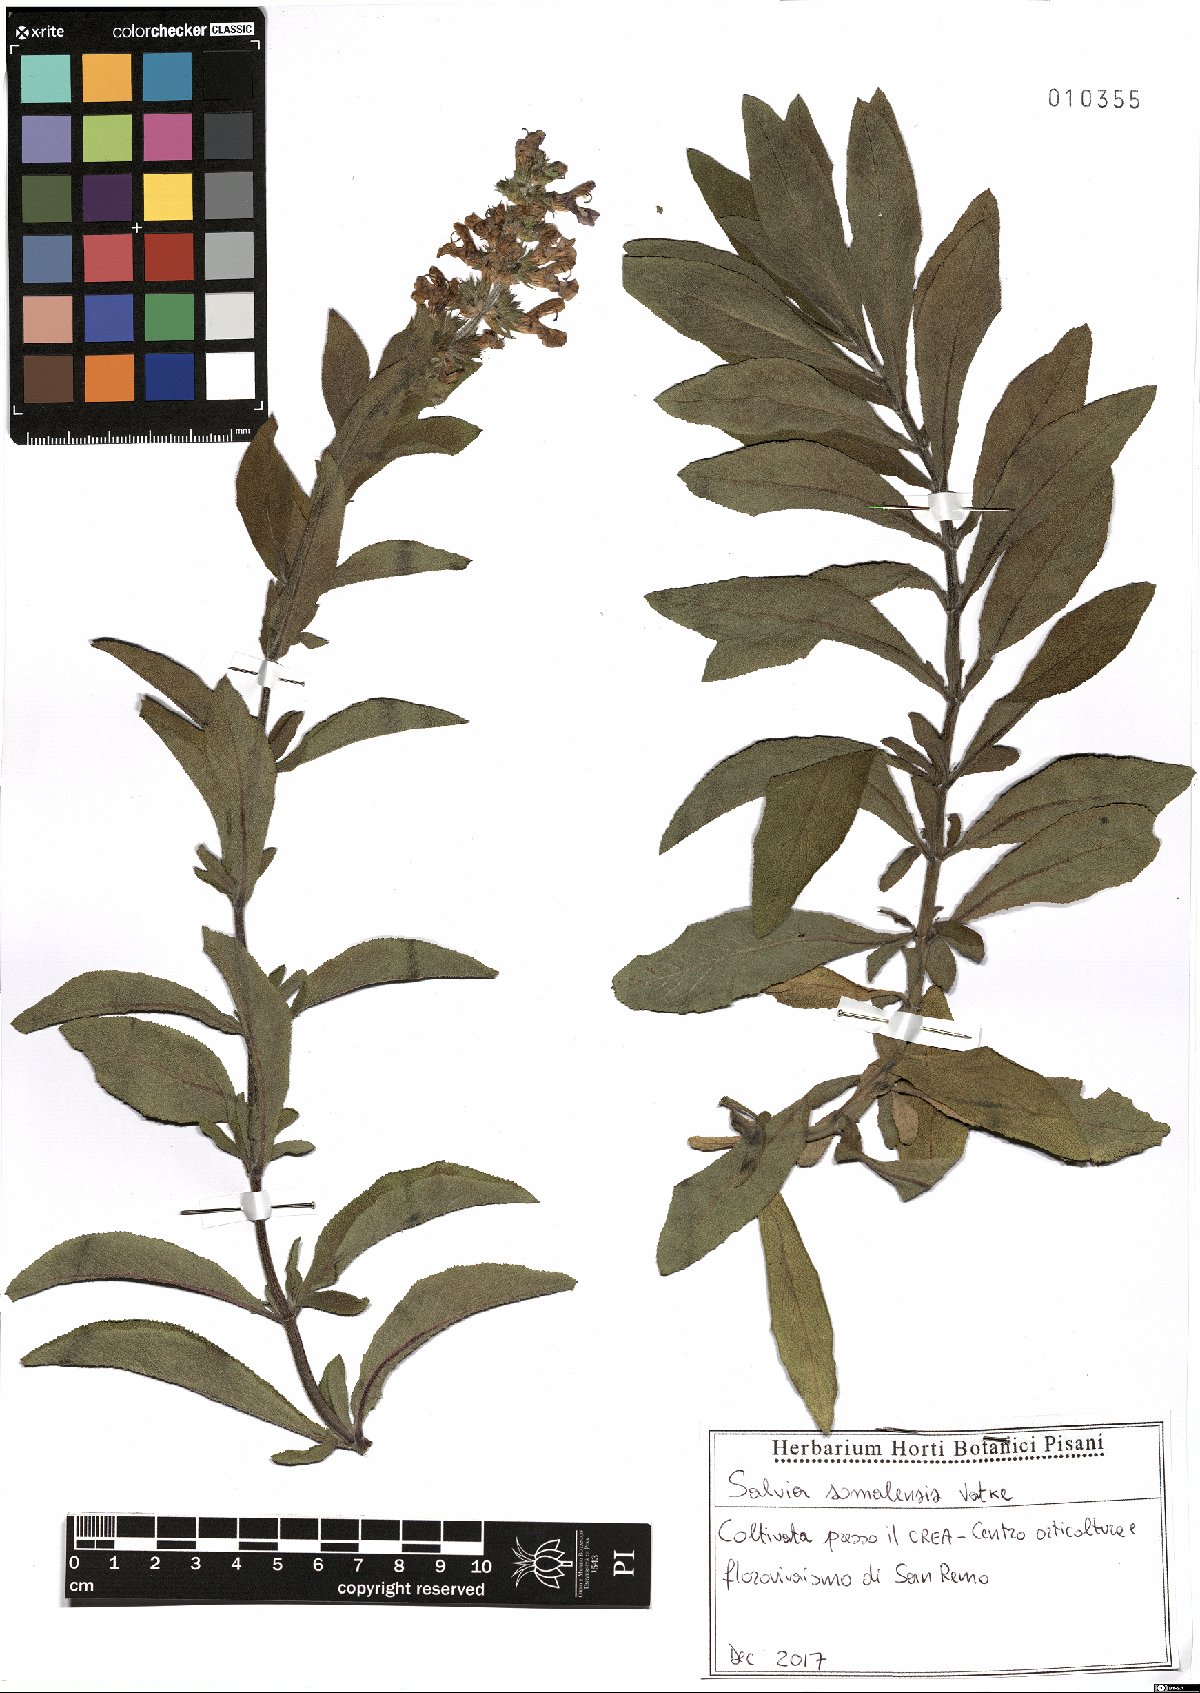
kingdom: Plantae
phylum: Tracheophyta
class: Magnoliopsida
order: Lamiales
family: Lamiaceae
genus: Salvia
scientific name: Salvia somalensis
